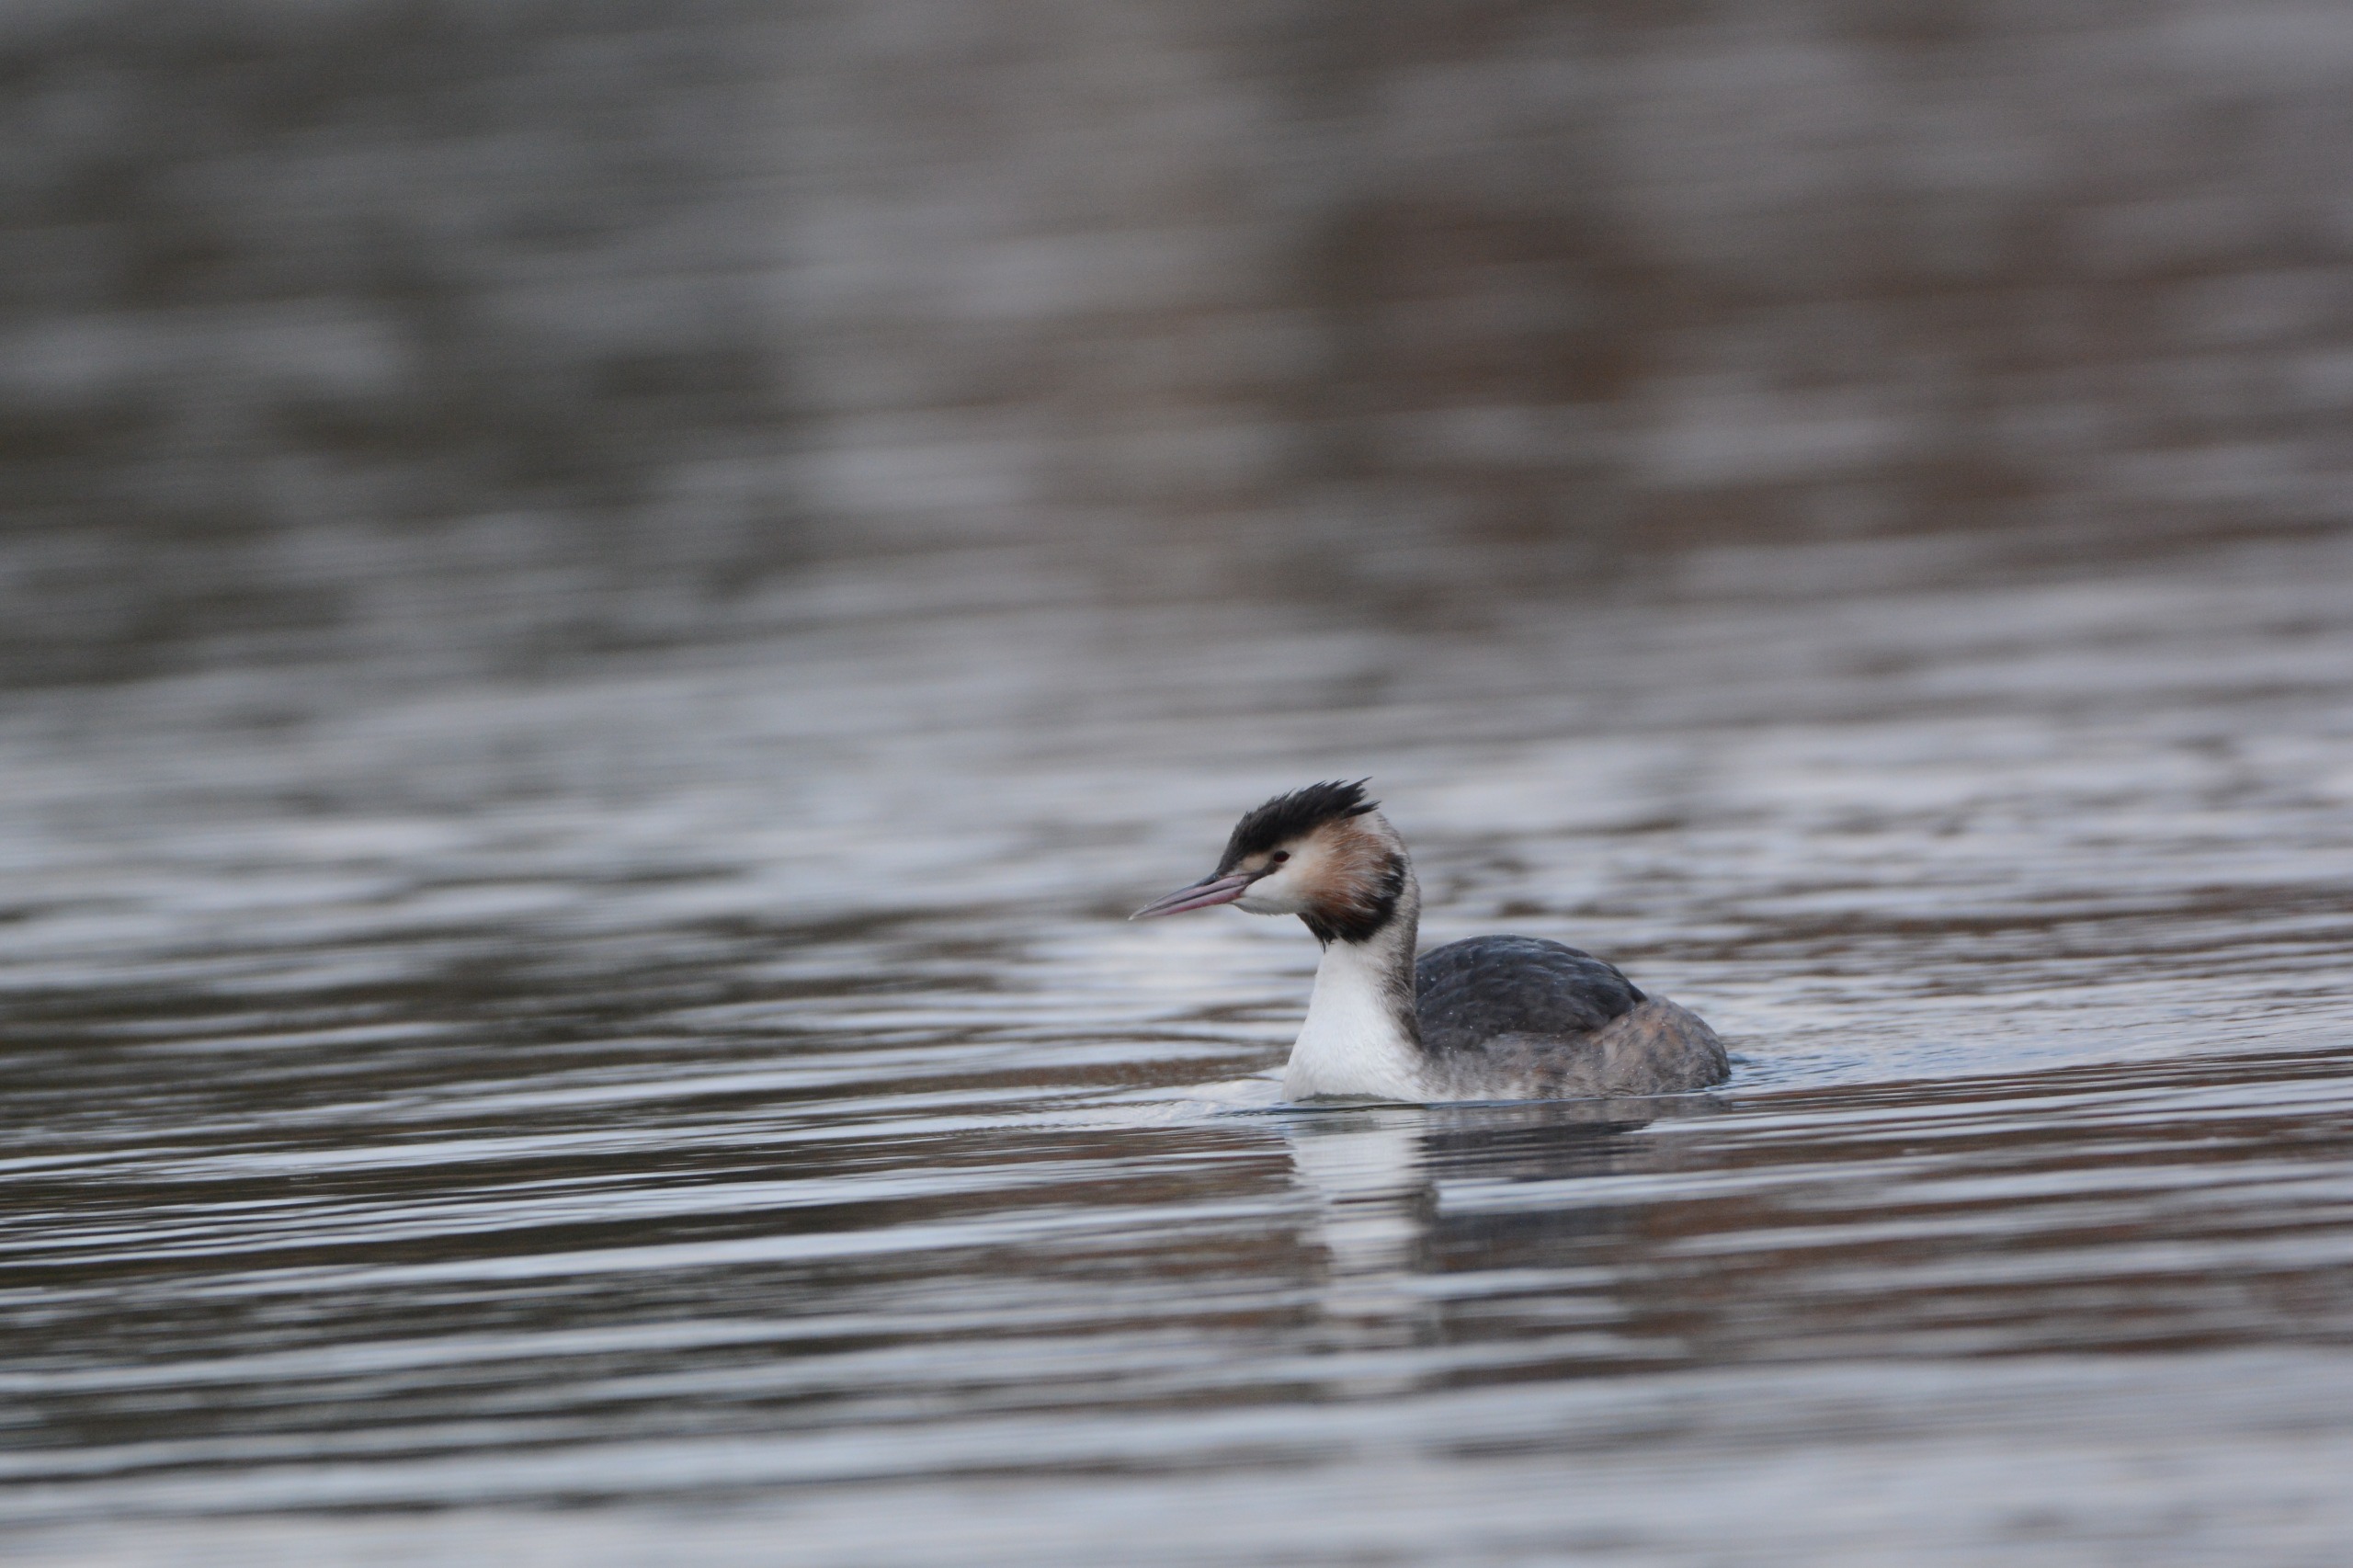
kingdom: Animalia
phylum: Chordata
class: Aves
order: Podicipediformes
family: Podicipedidae
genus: Podiceps
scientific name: Podiceps cristatus
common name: Toppet lappedykker
